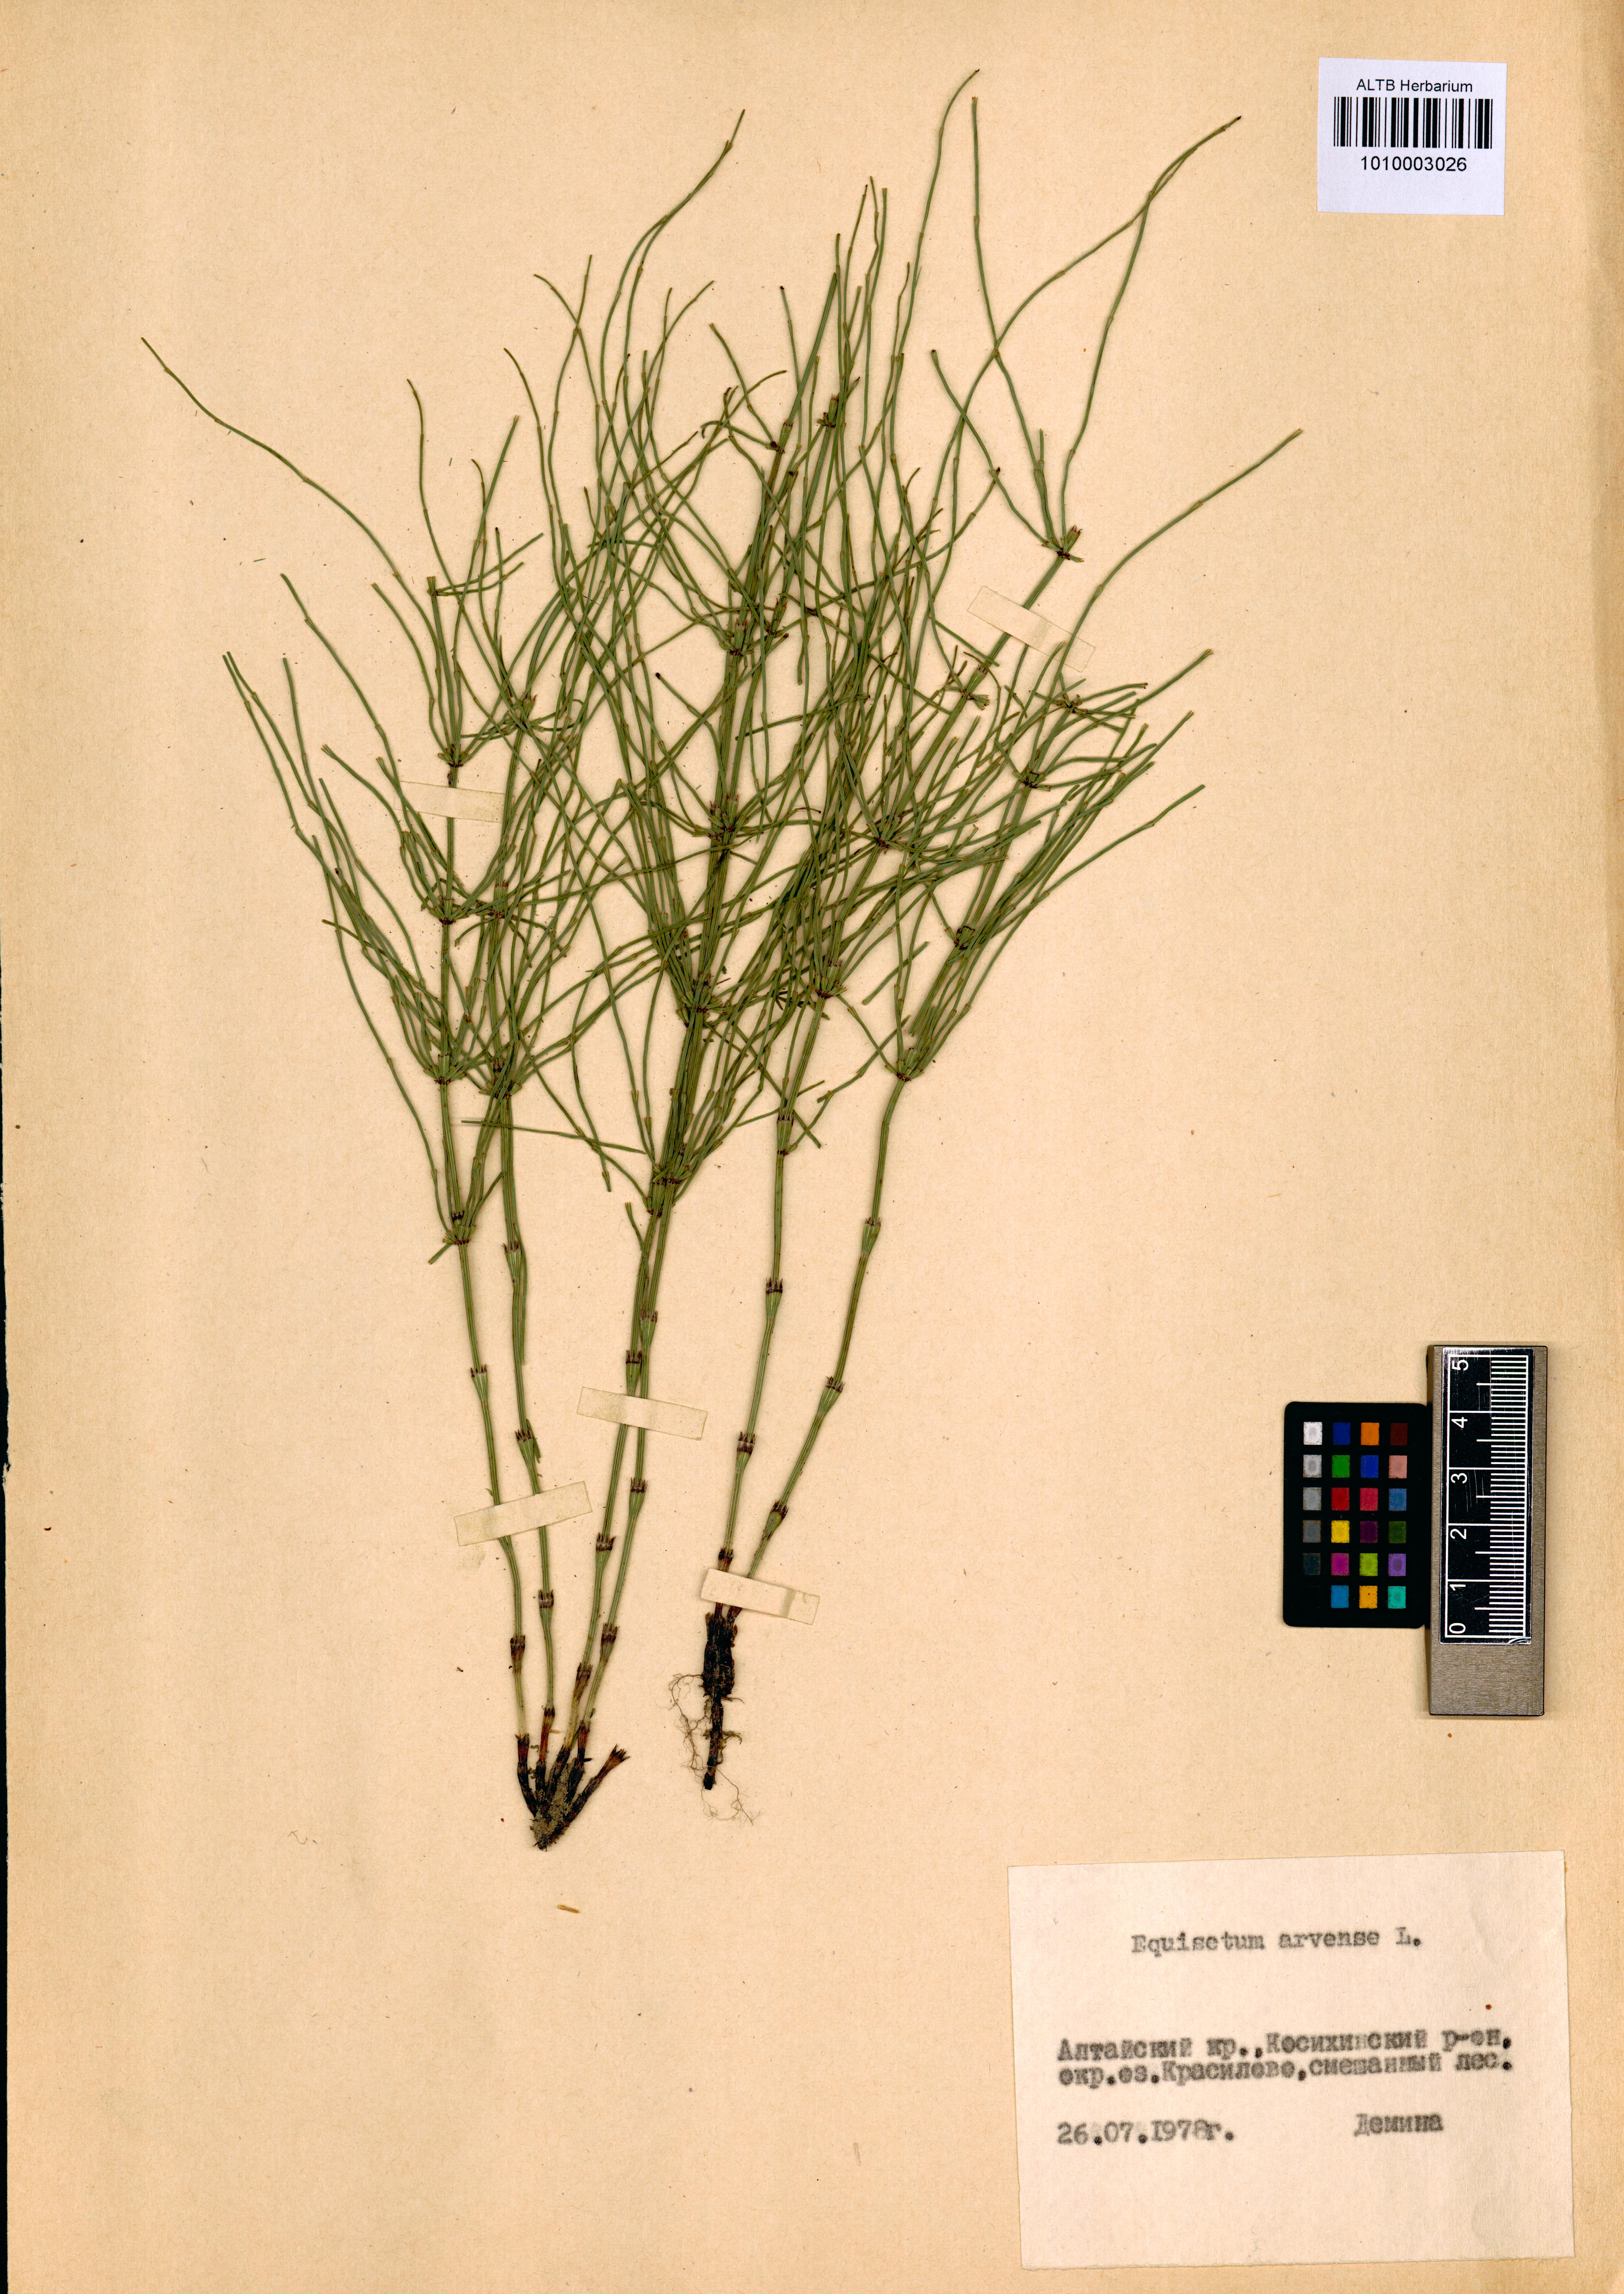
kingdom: Plantae
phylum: Tracheophyta
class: Polypodiopsida
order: Equisetales
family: Equisetaceae
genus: Equisetum
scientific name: Equisetum arvense
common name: Field horsetail
